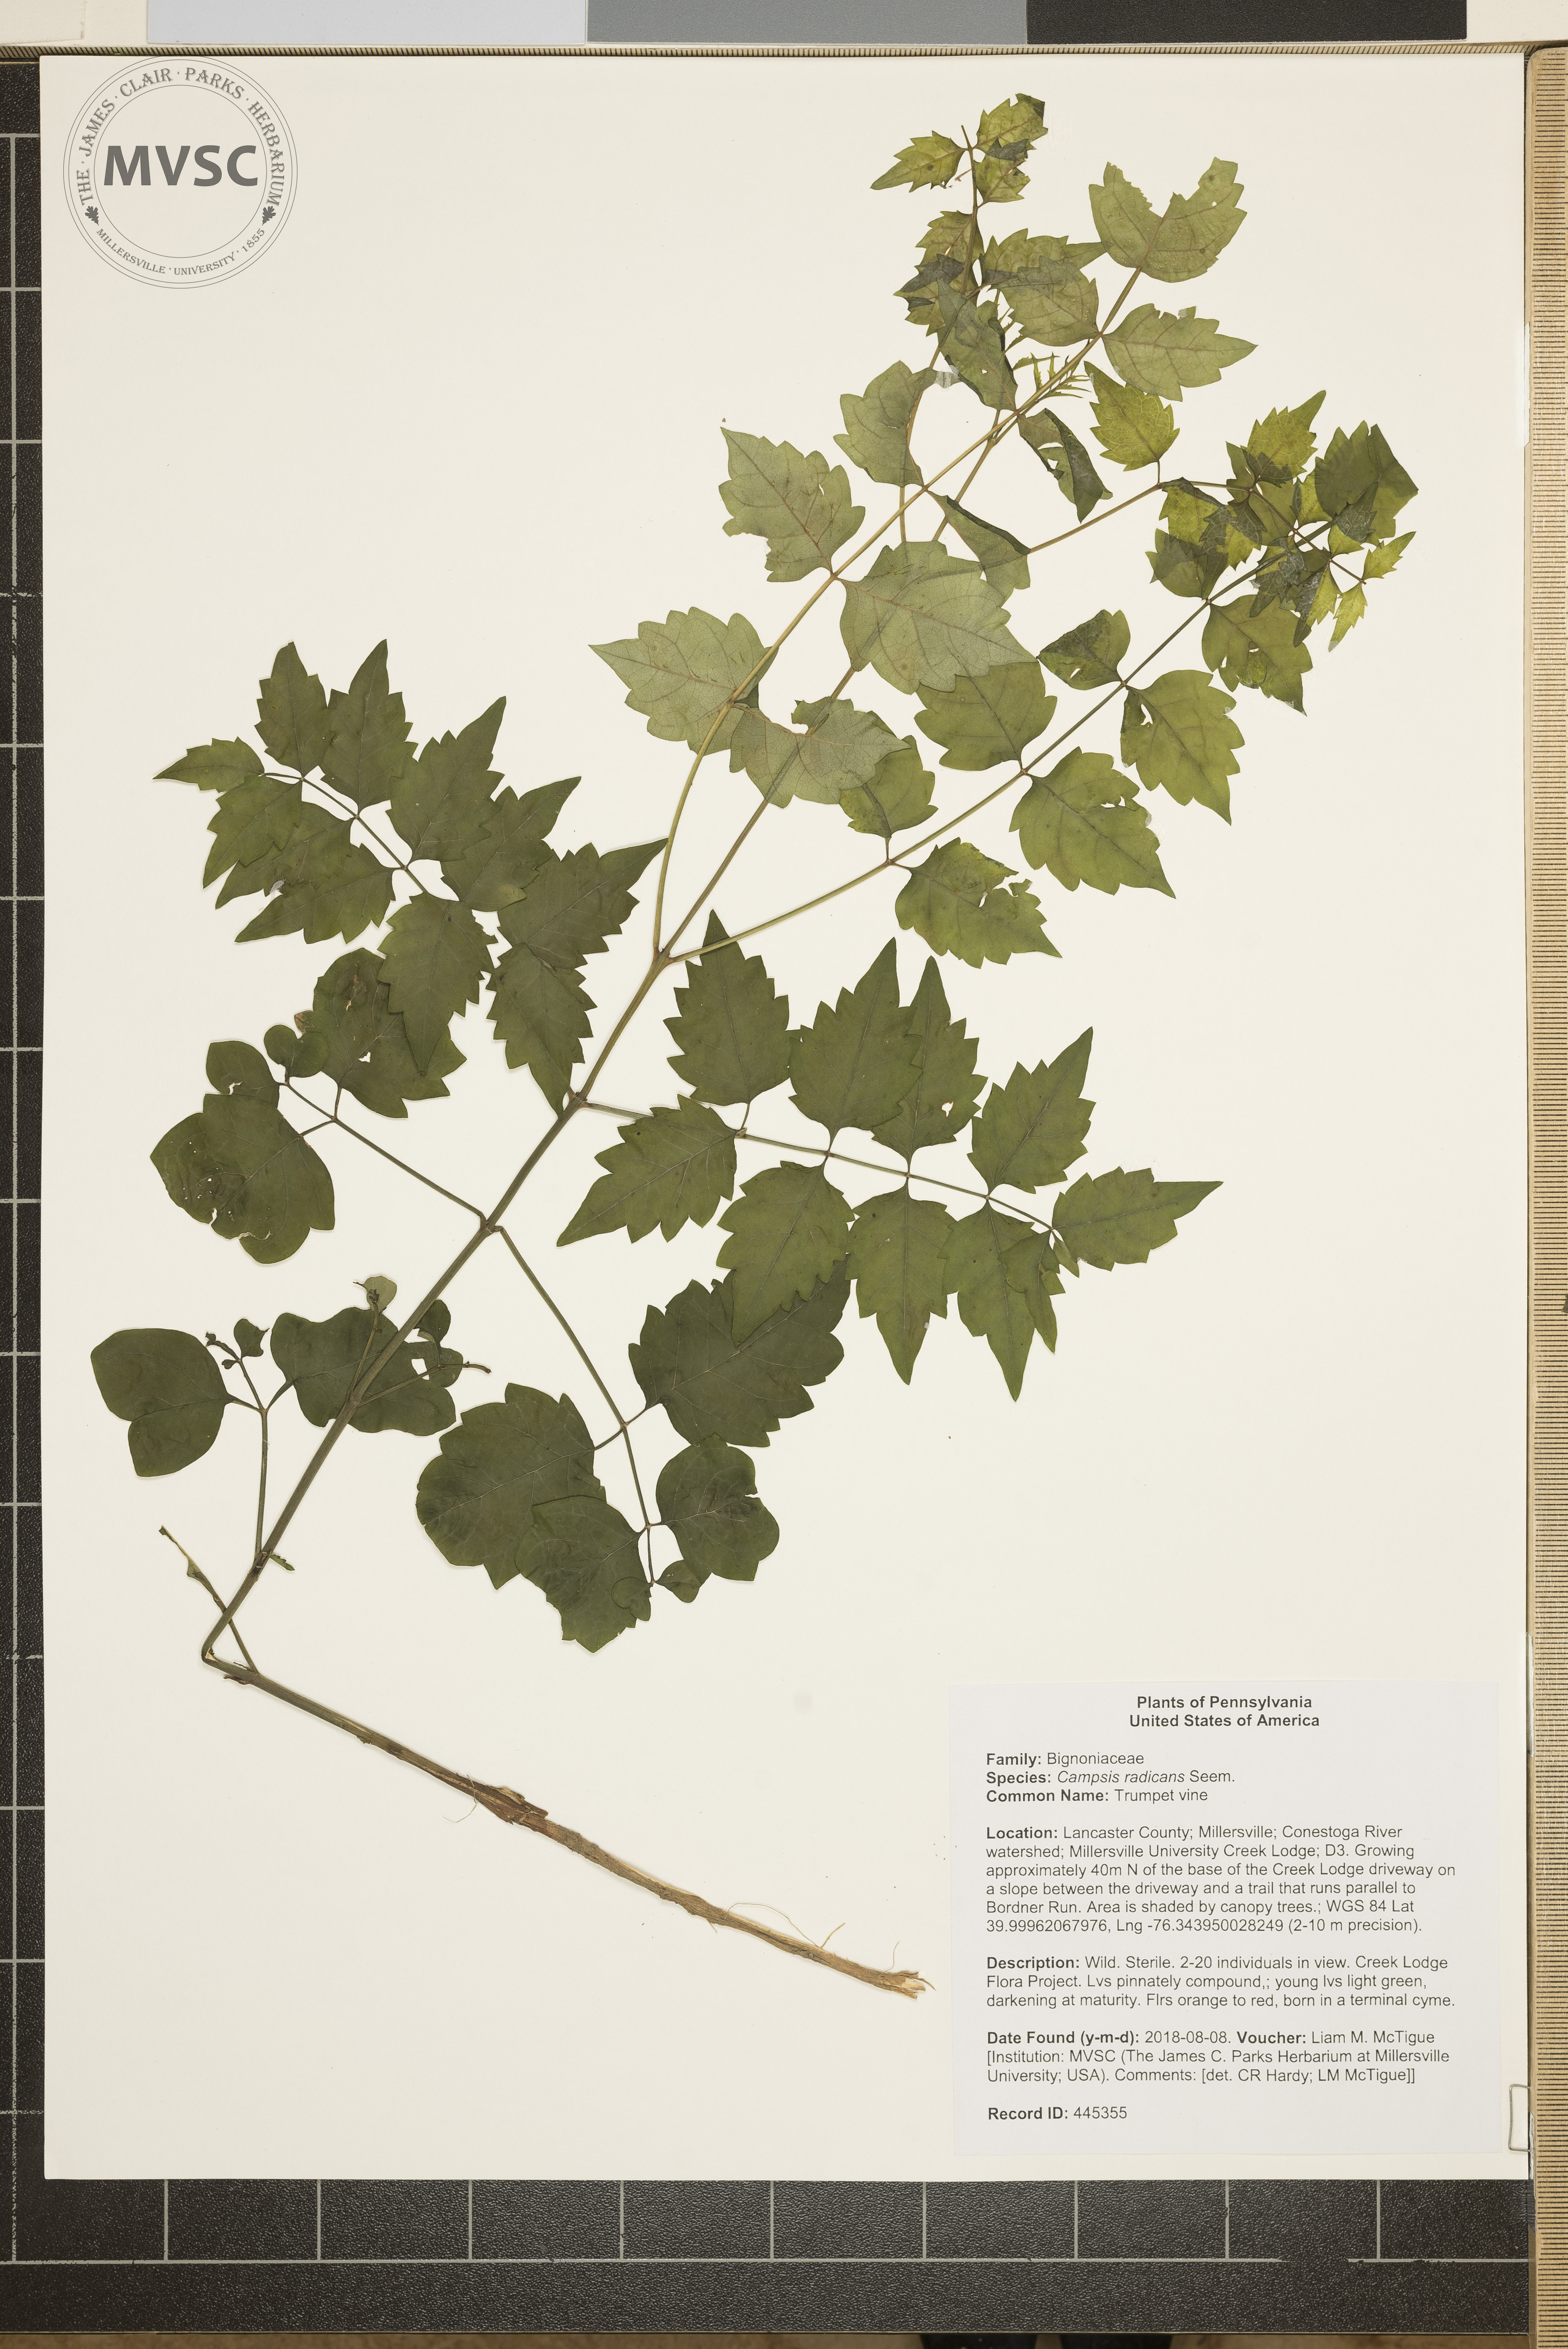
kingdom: Plantae
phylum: Tracheophyta
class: Magnoliopsida
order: Lamiales
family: Bignoniaceae
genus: Campsis
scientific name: Campsis radicans
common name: Trumpet vine
